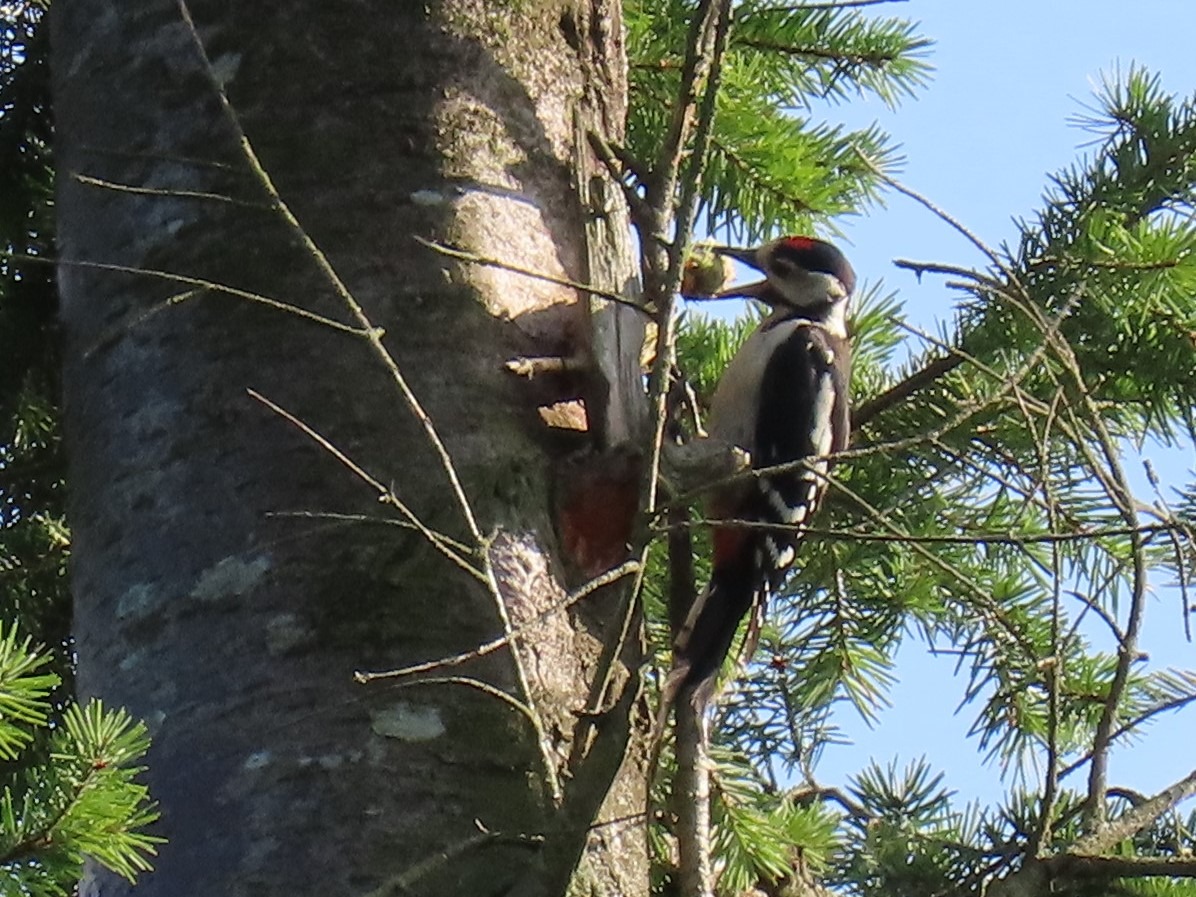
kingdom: Animalia
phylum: Chordata
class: Aves
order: Piciformes
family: Picidae
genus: Dendrocopos
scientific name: Dendrocopos major
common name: Stor flagspætte
